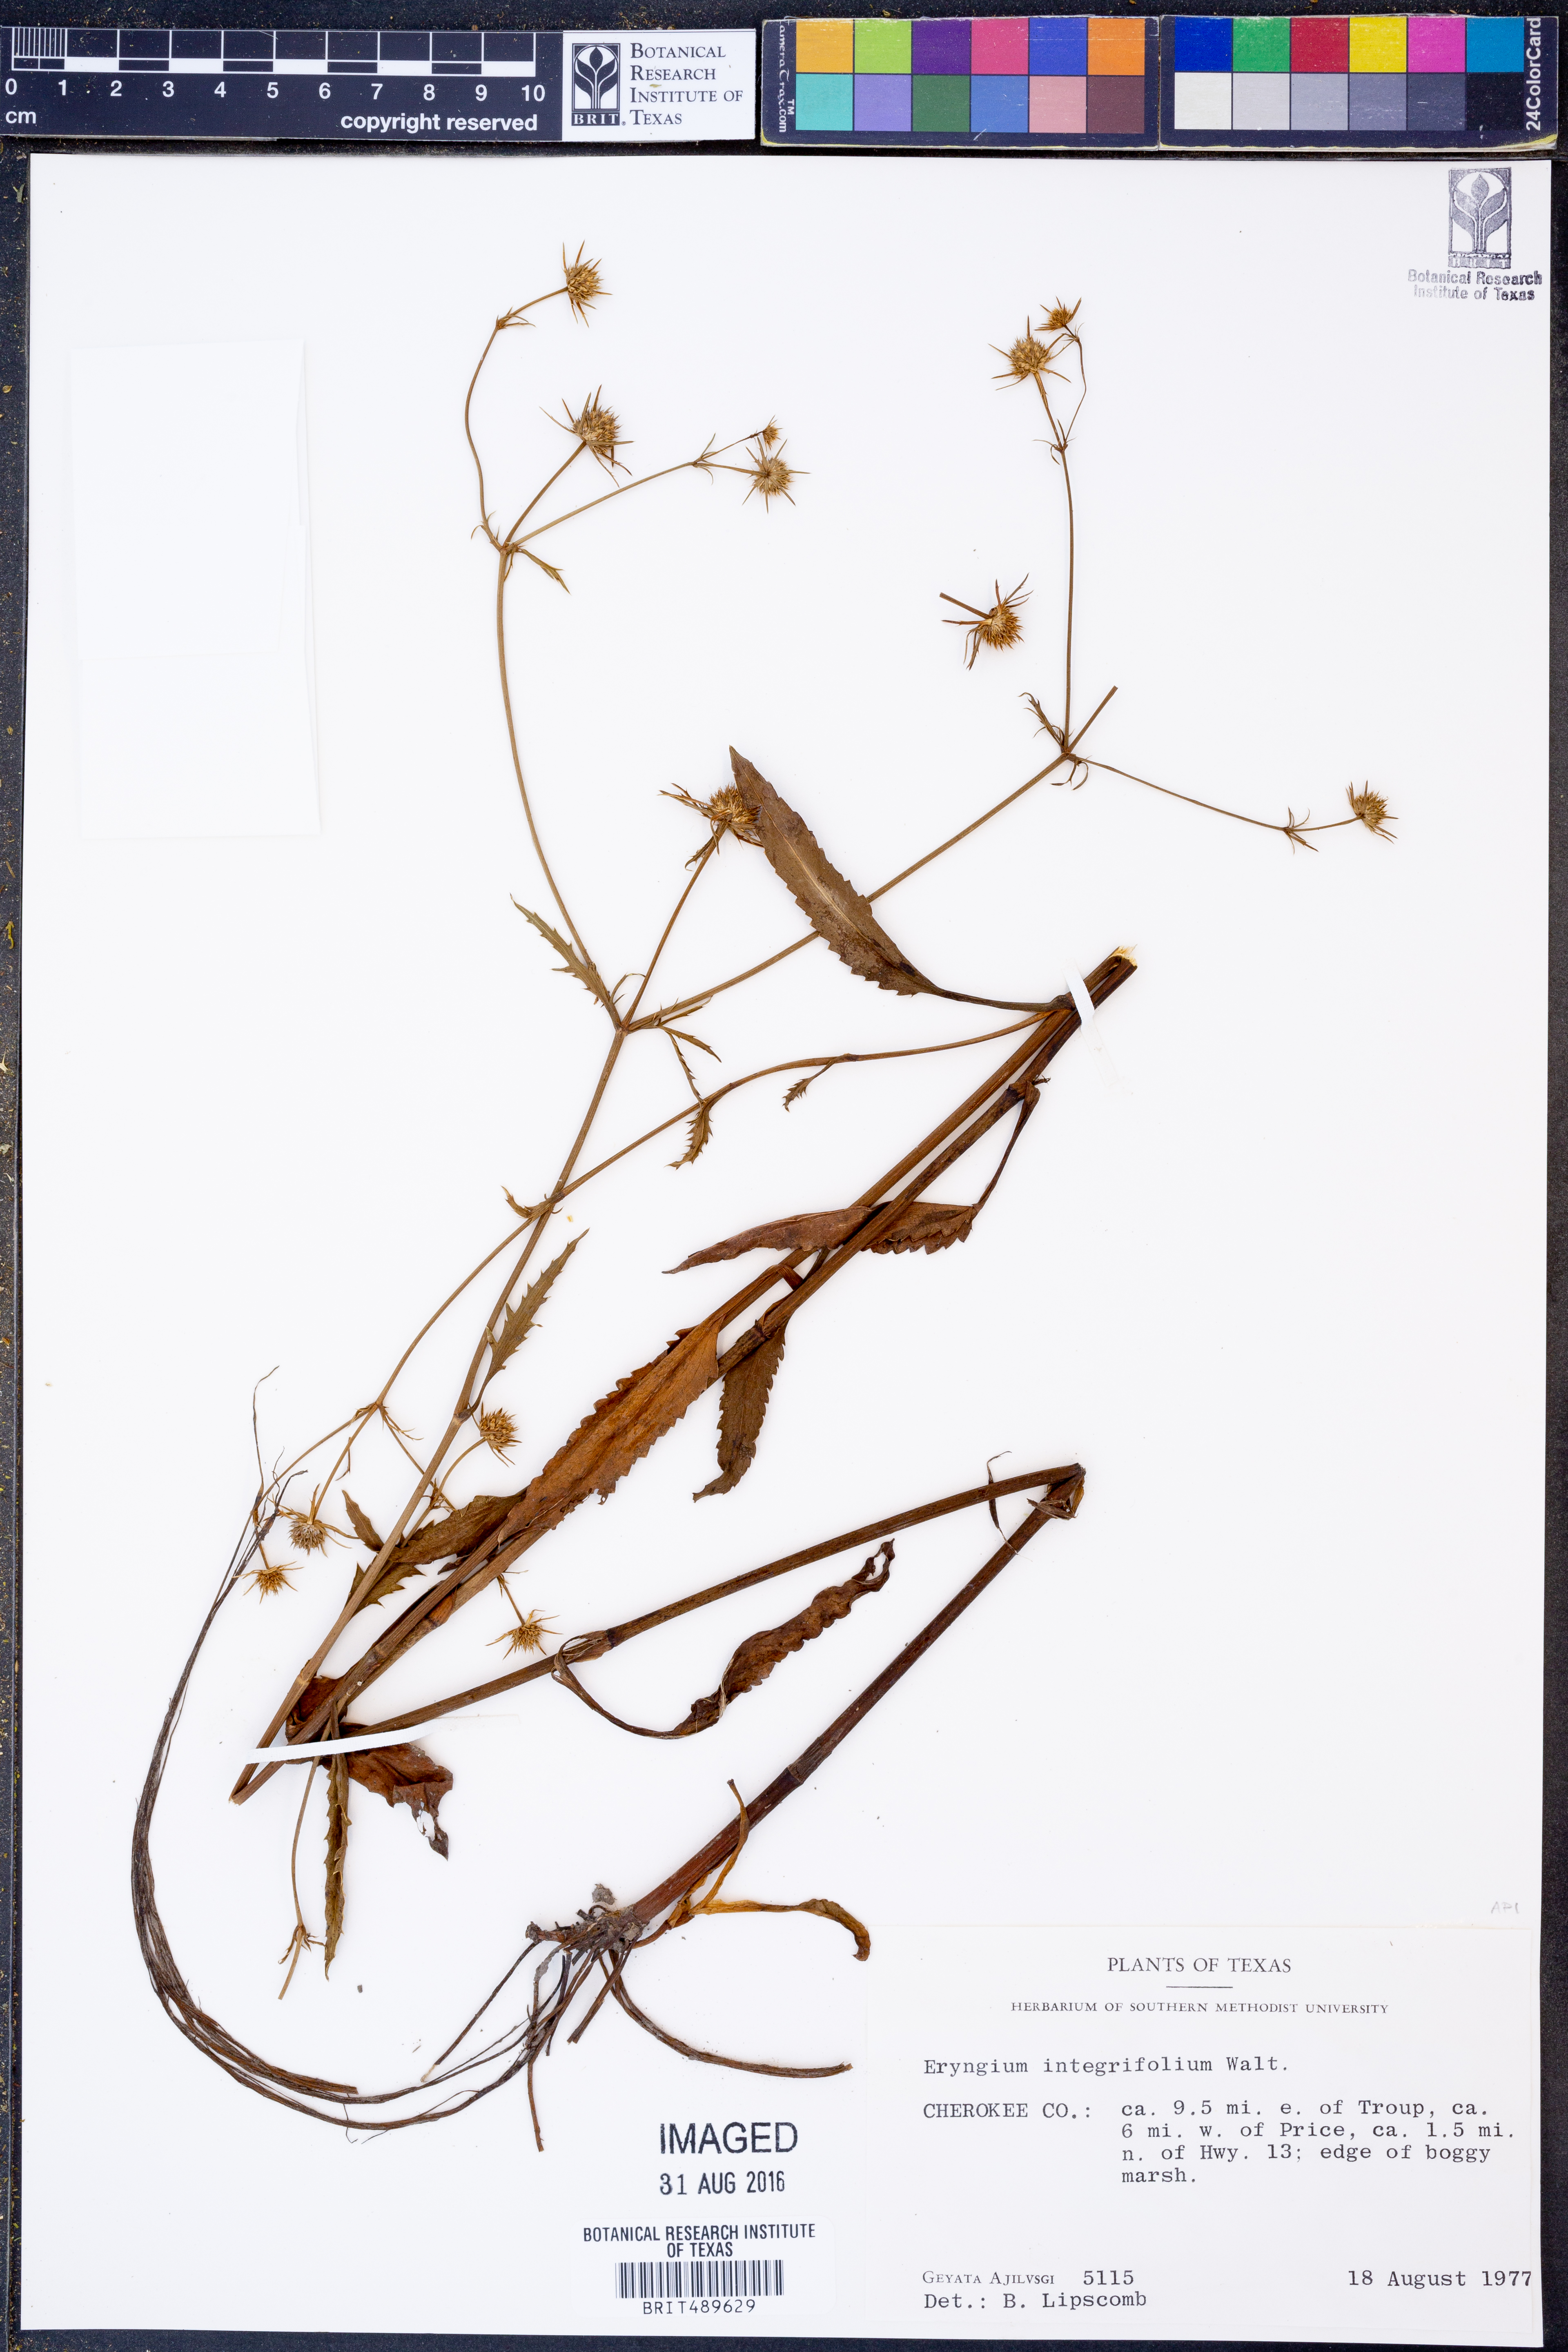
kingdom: Plantae
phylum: Tracheophyta
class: Magnoliopsida
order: Apiales
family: Apiaceae
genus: Eryngium
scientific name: Eryngium integrifolium
